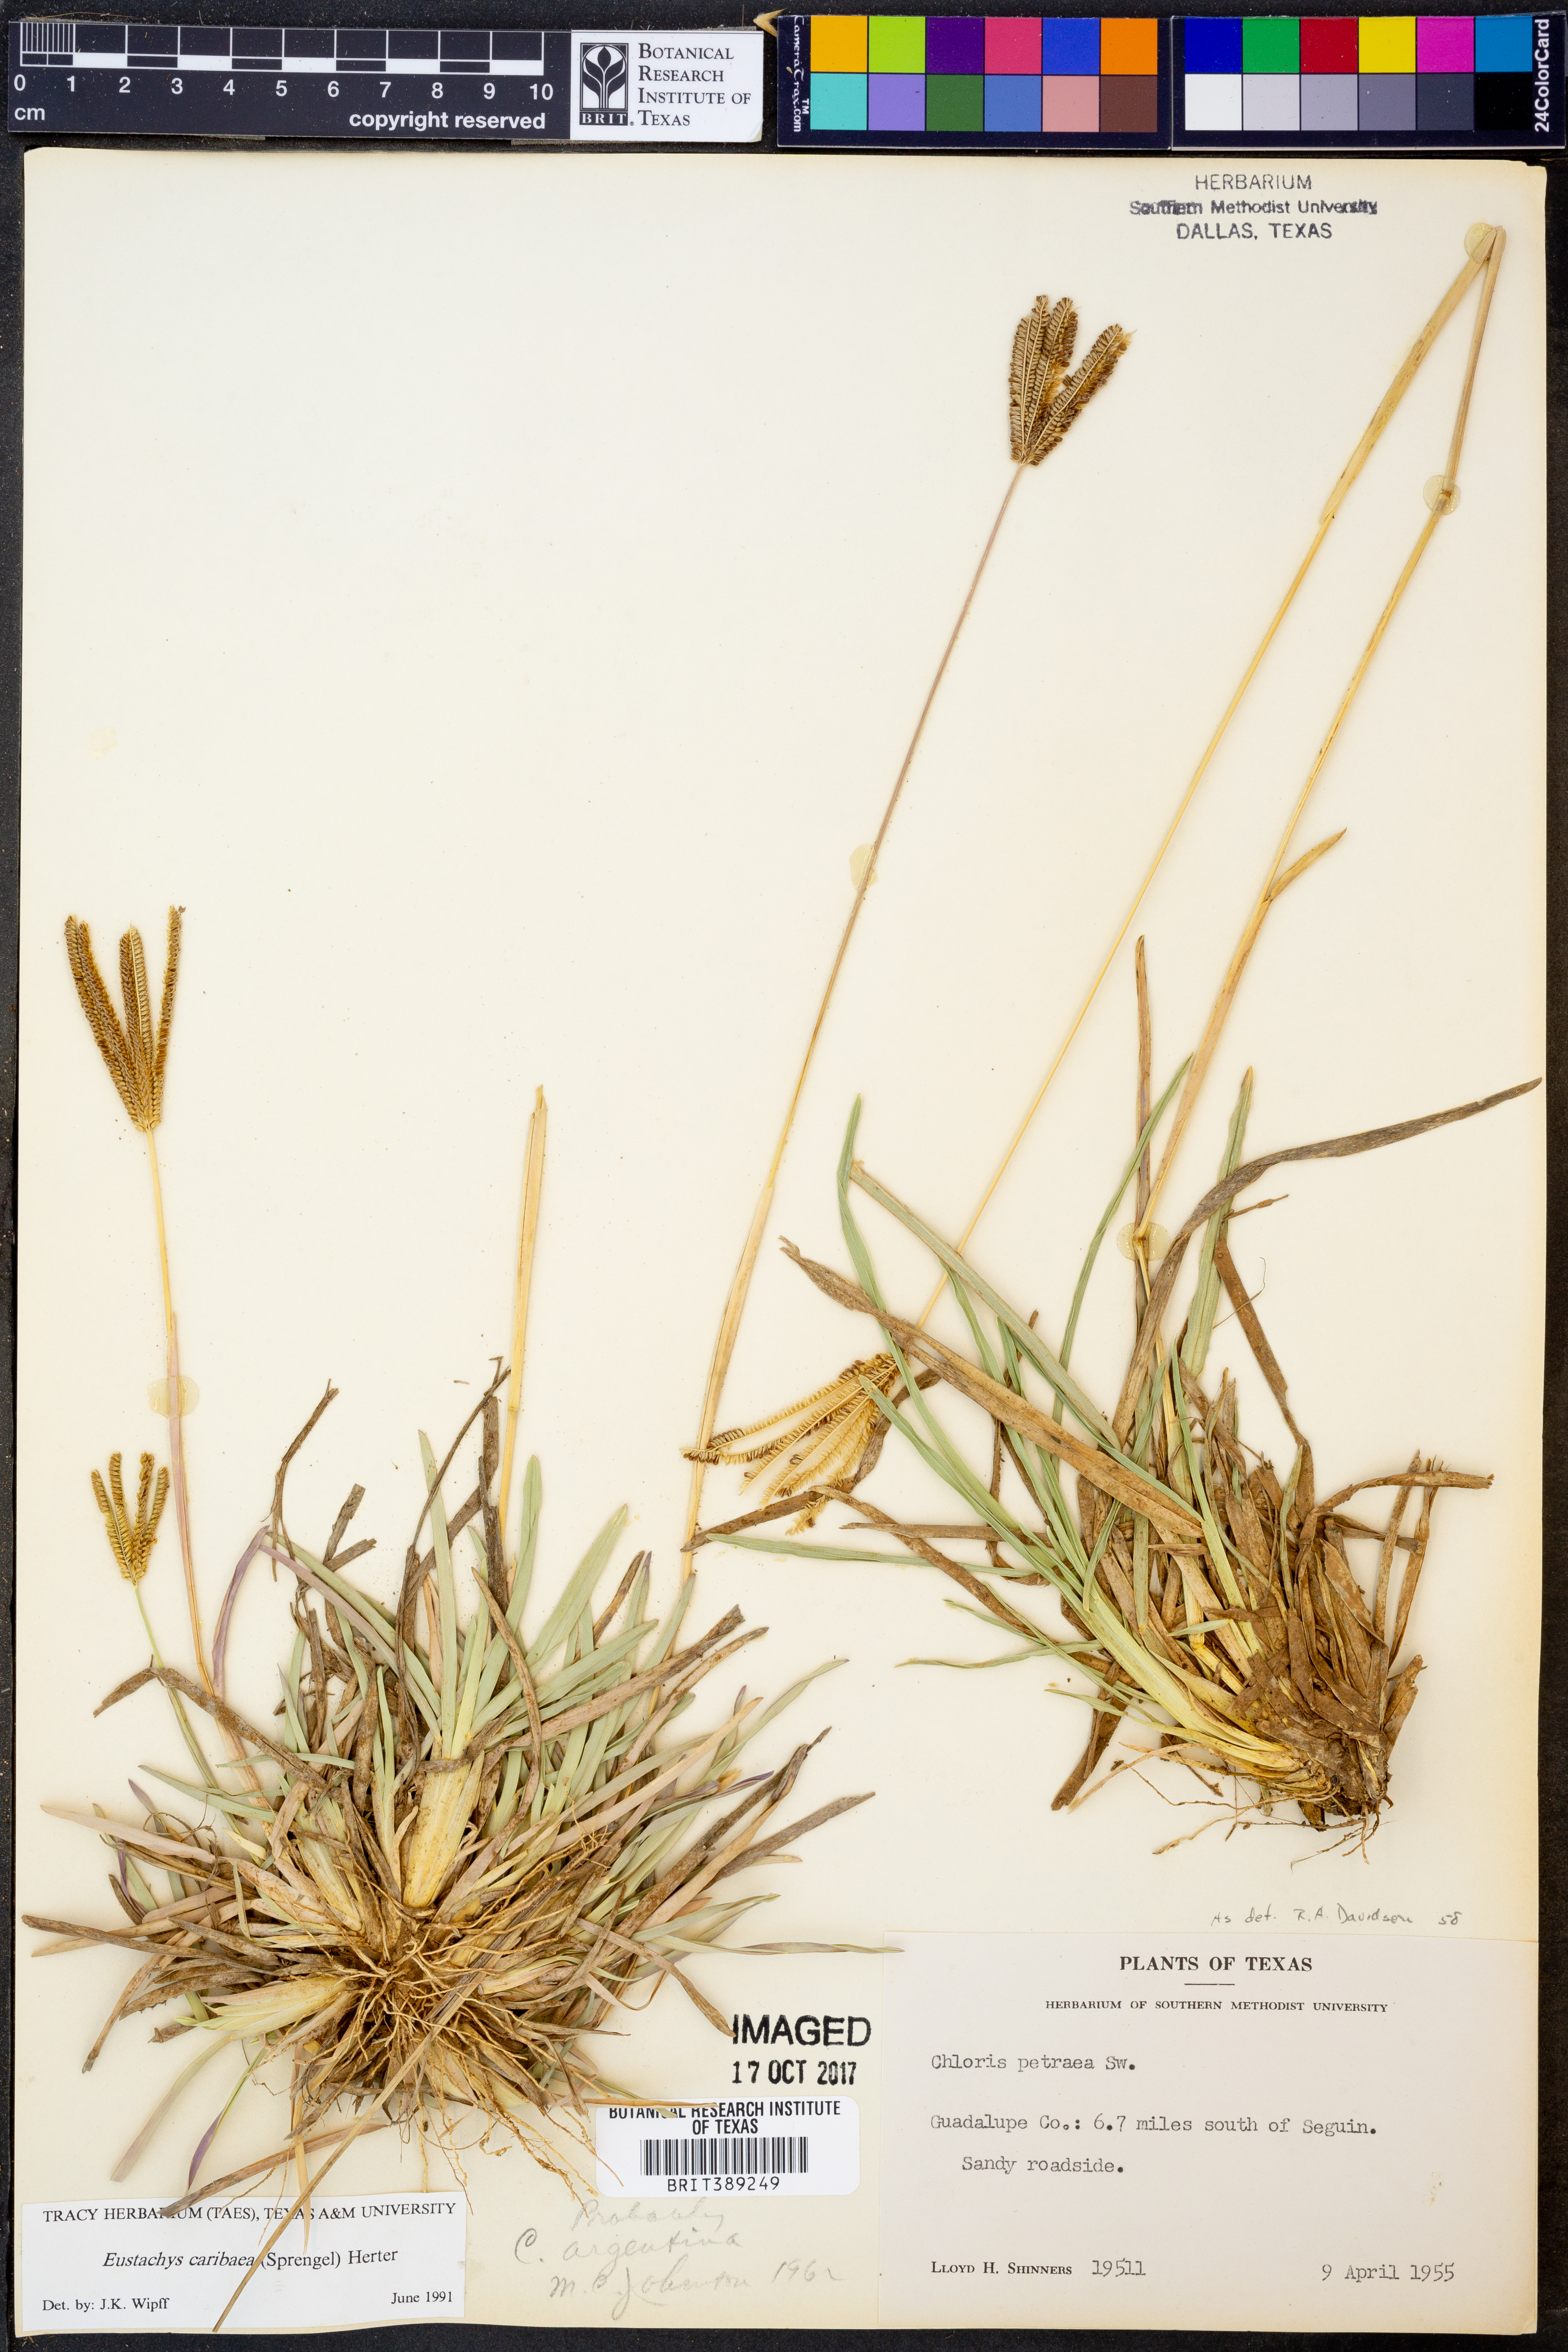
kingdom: Plantae
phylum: Tracheophyta
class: Liliopsida
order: Poales
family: Poaceae
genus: Eustachys
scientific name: Eustachys caribaea
